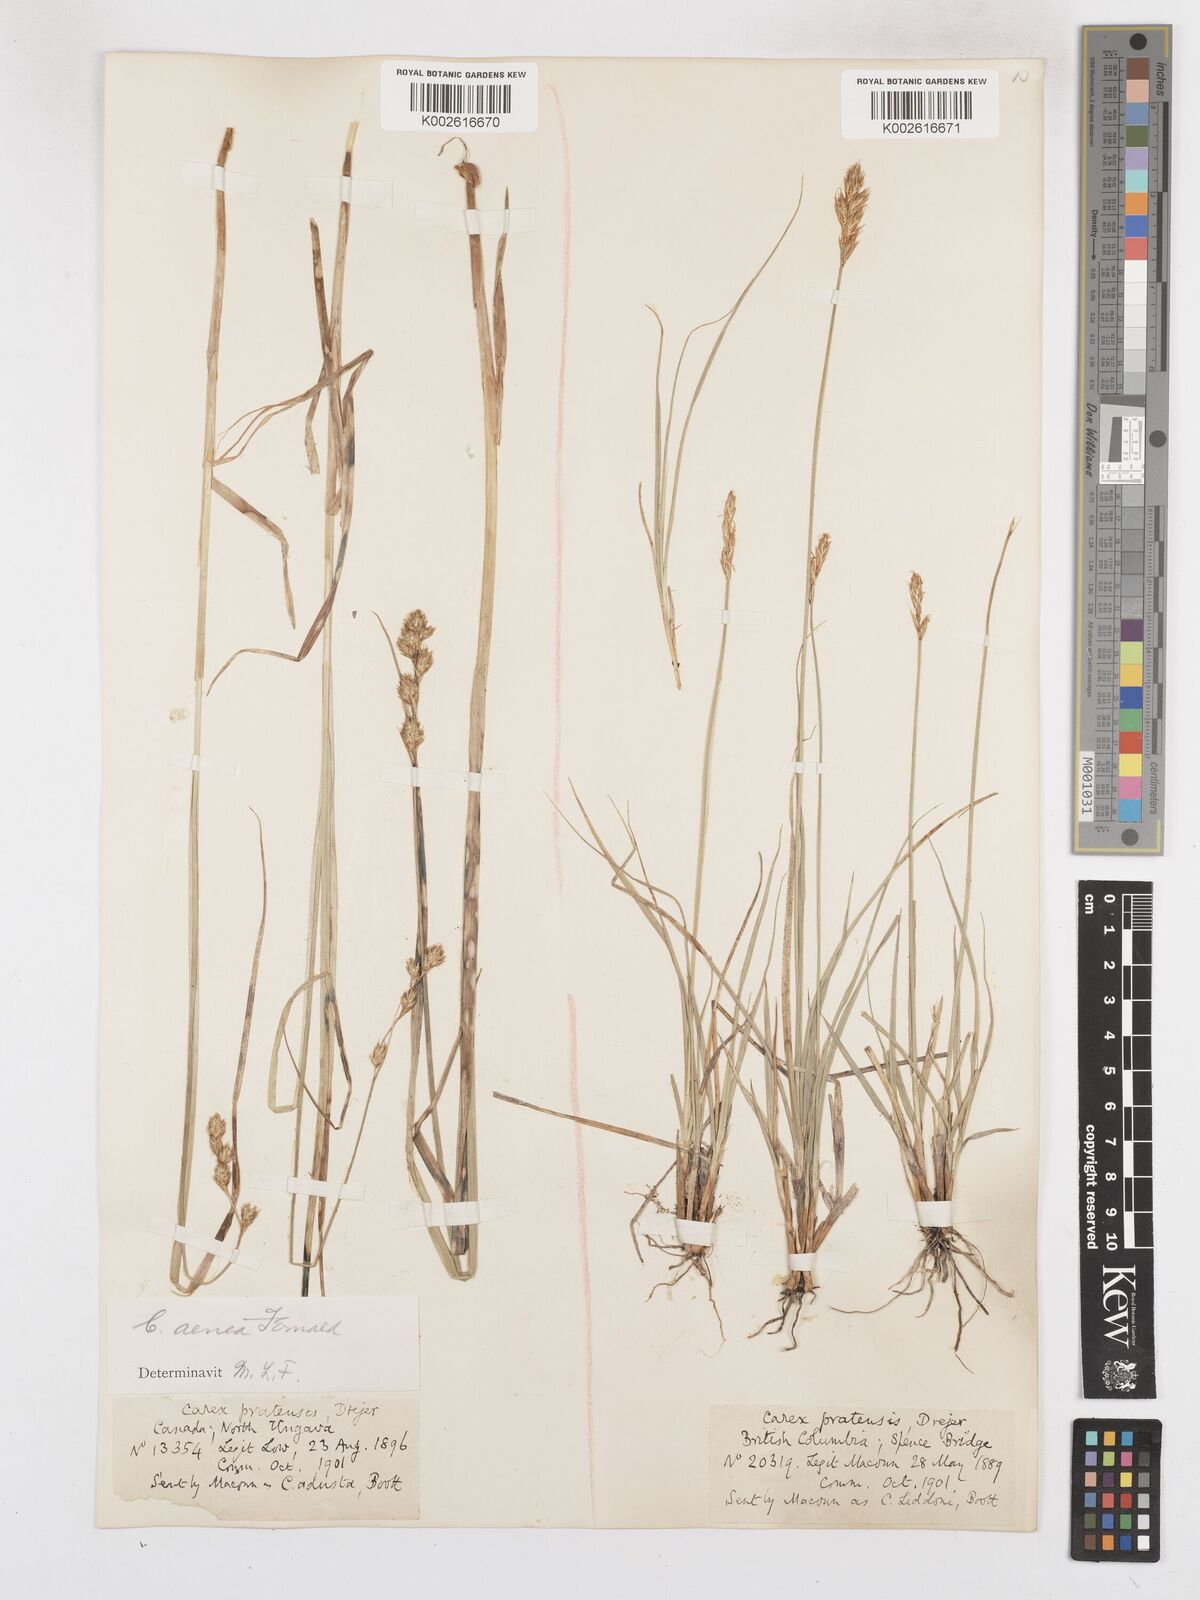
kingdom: Plantae
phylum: Tracheophyta
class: Liliopsida
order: Poales
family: Cyperaceae
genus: Carex
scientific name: Carex foenea
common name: Bronze sedge
